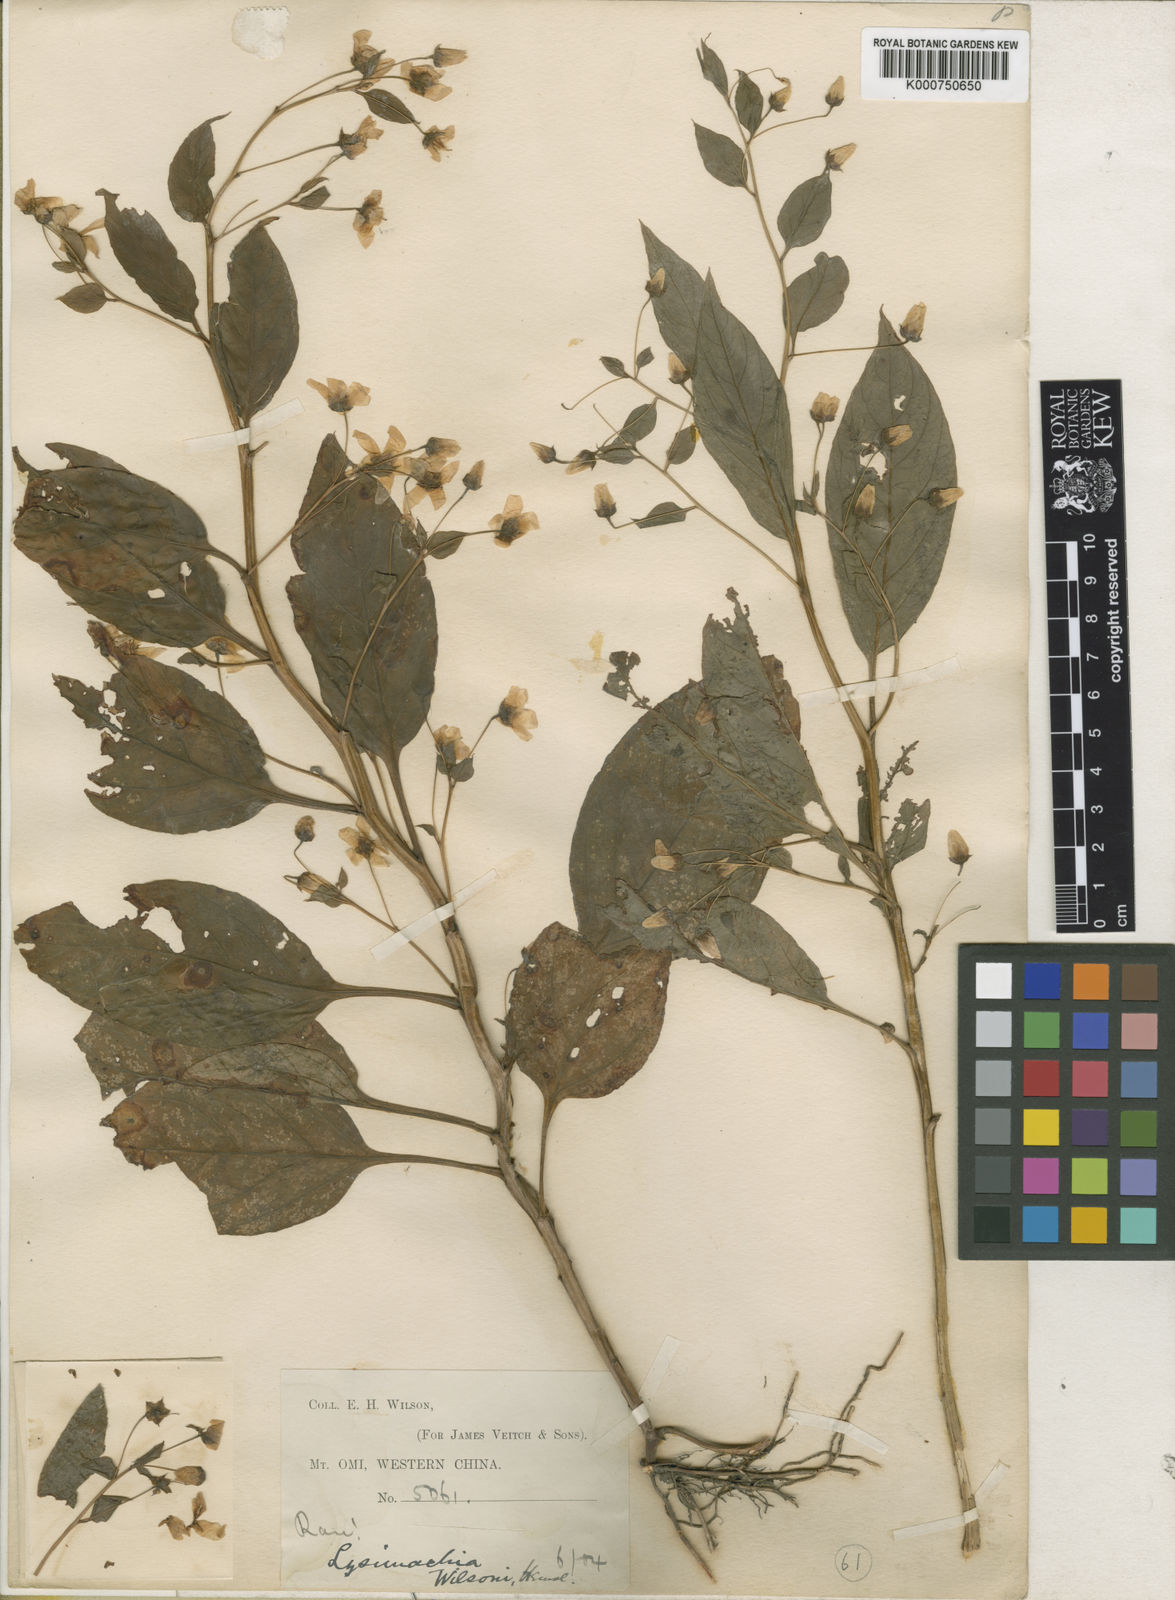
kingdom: Plantae
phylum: Tracheophyta
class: Magnoliopsida
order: Ericales
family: Primulaceae
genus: Lysimachia
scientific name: Lysimachia wilsonii
